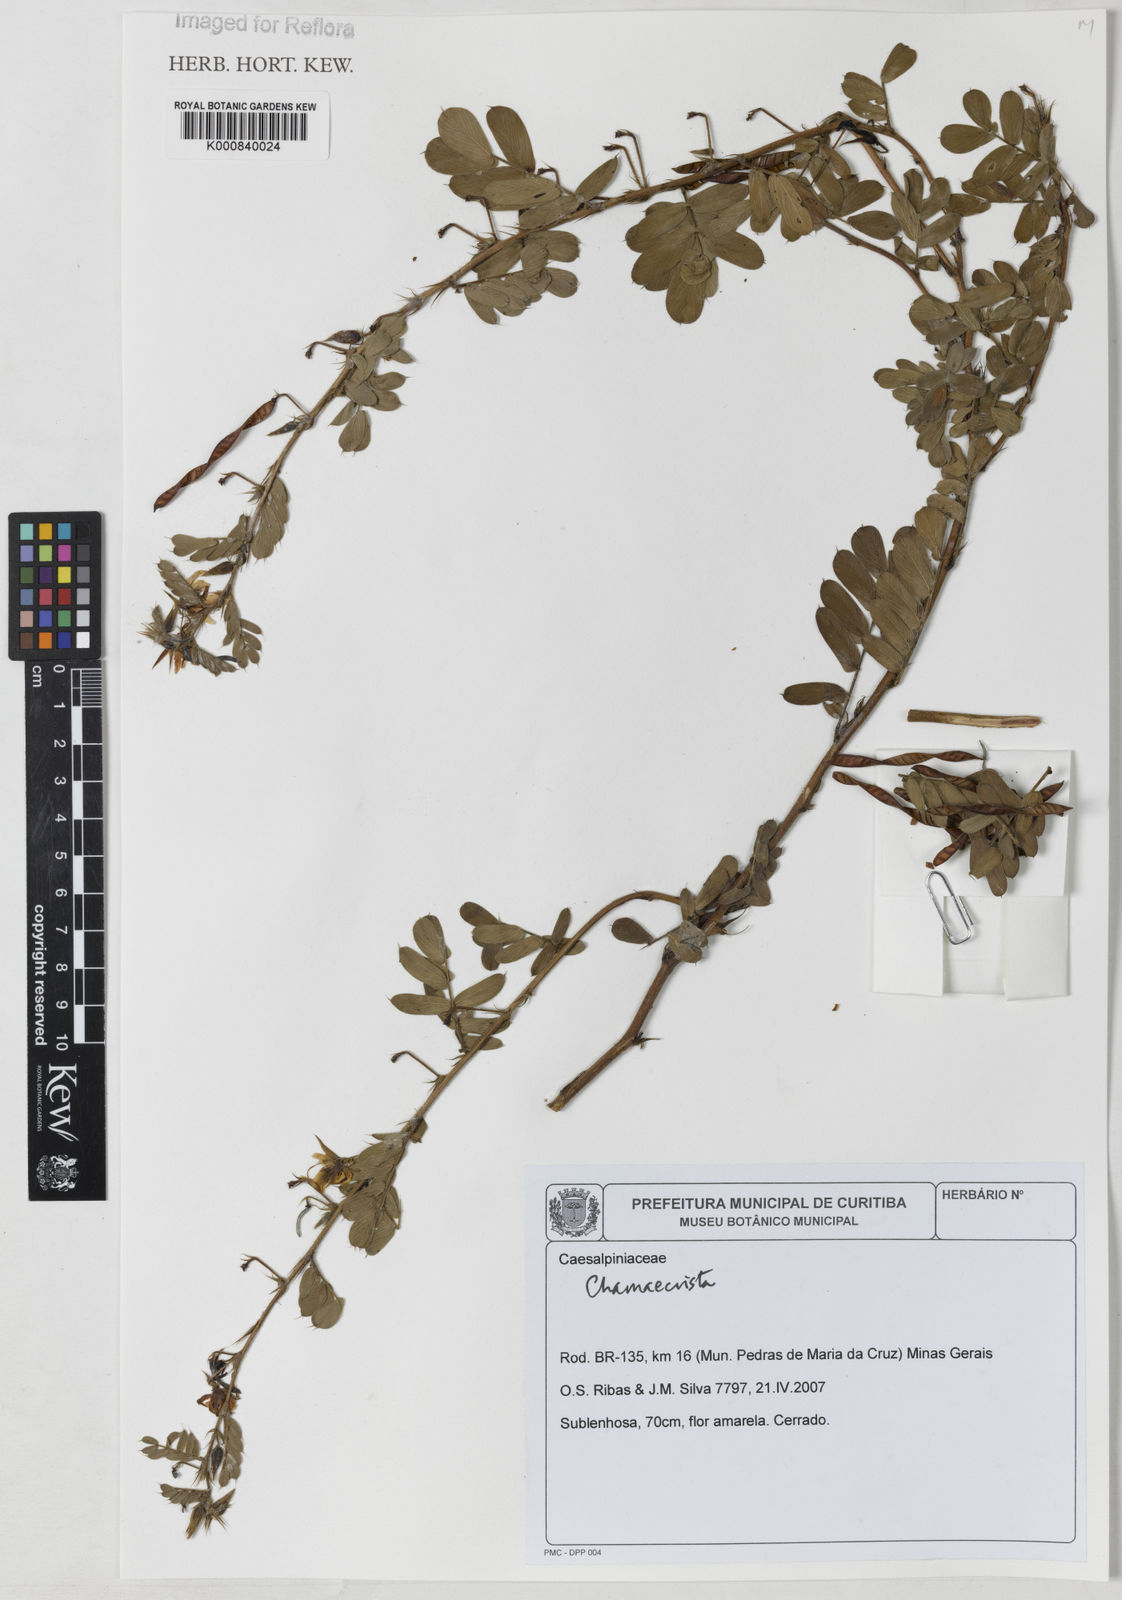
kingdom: Plantae
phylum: Tracheophyta
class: Magnoliopsida
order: Fabales
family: Fabaceae
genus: Chamaecrista
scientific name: Chamaecrista
